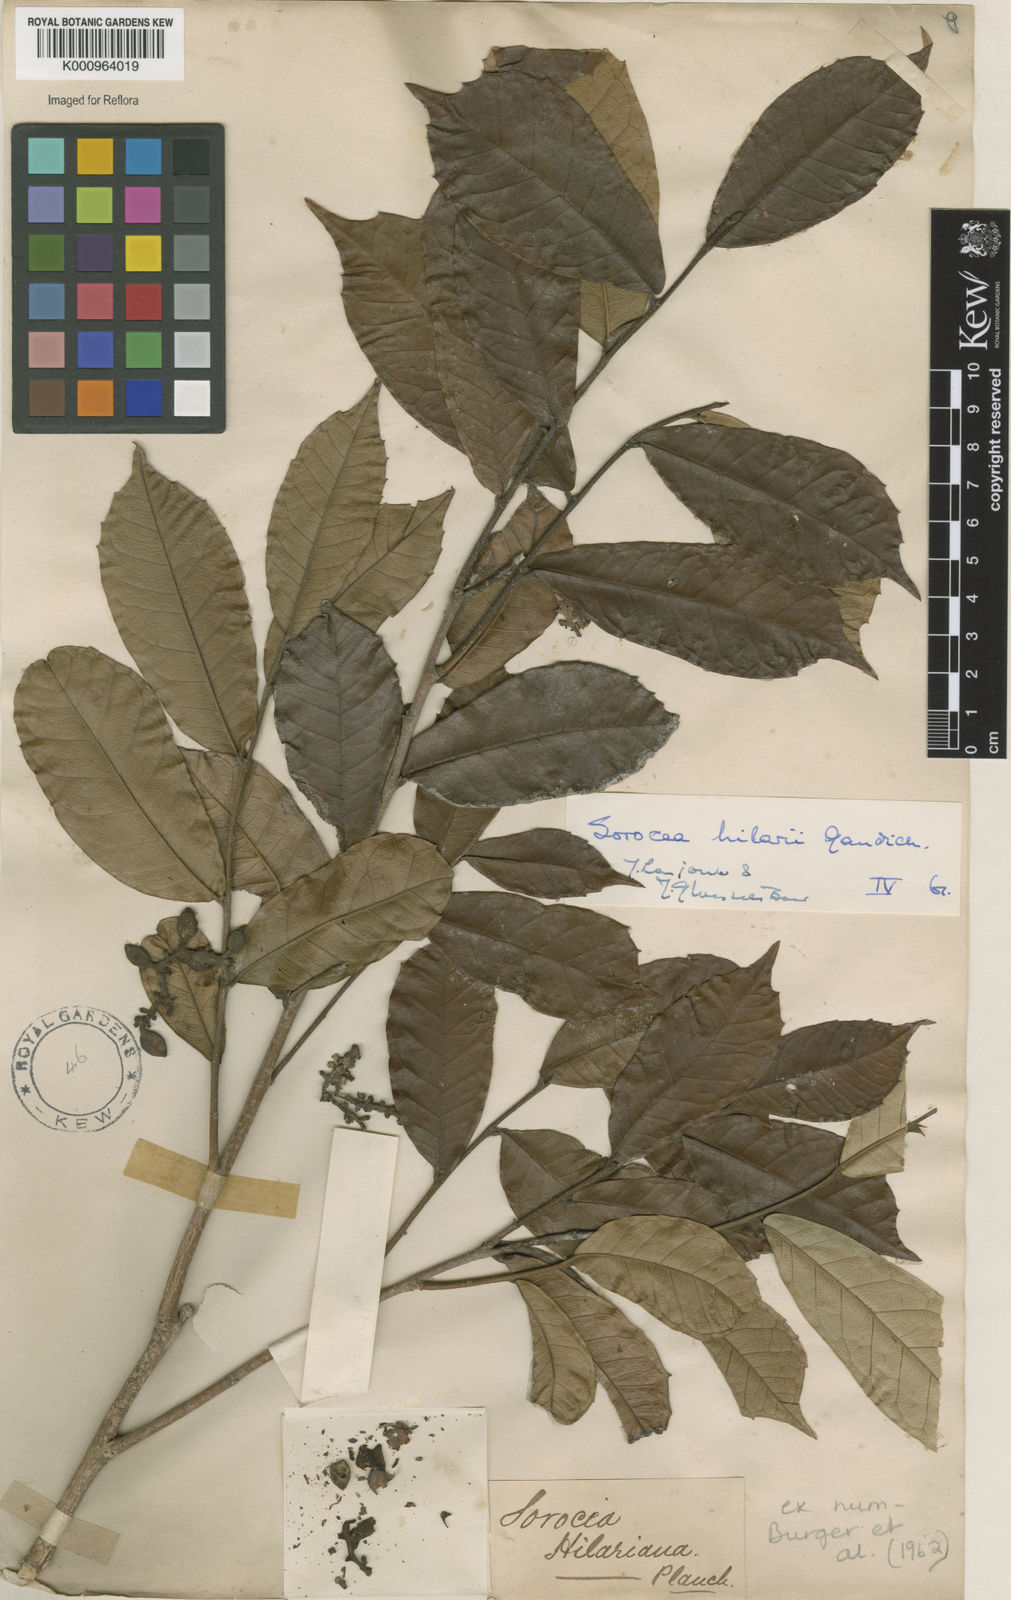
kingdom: Plantae
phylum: Tracheophyta
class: Magnoliopsida
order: Rosales
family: Moraceae
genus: Sorocea
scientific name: Sorocea hilarii
